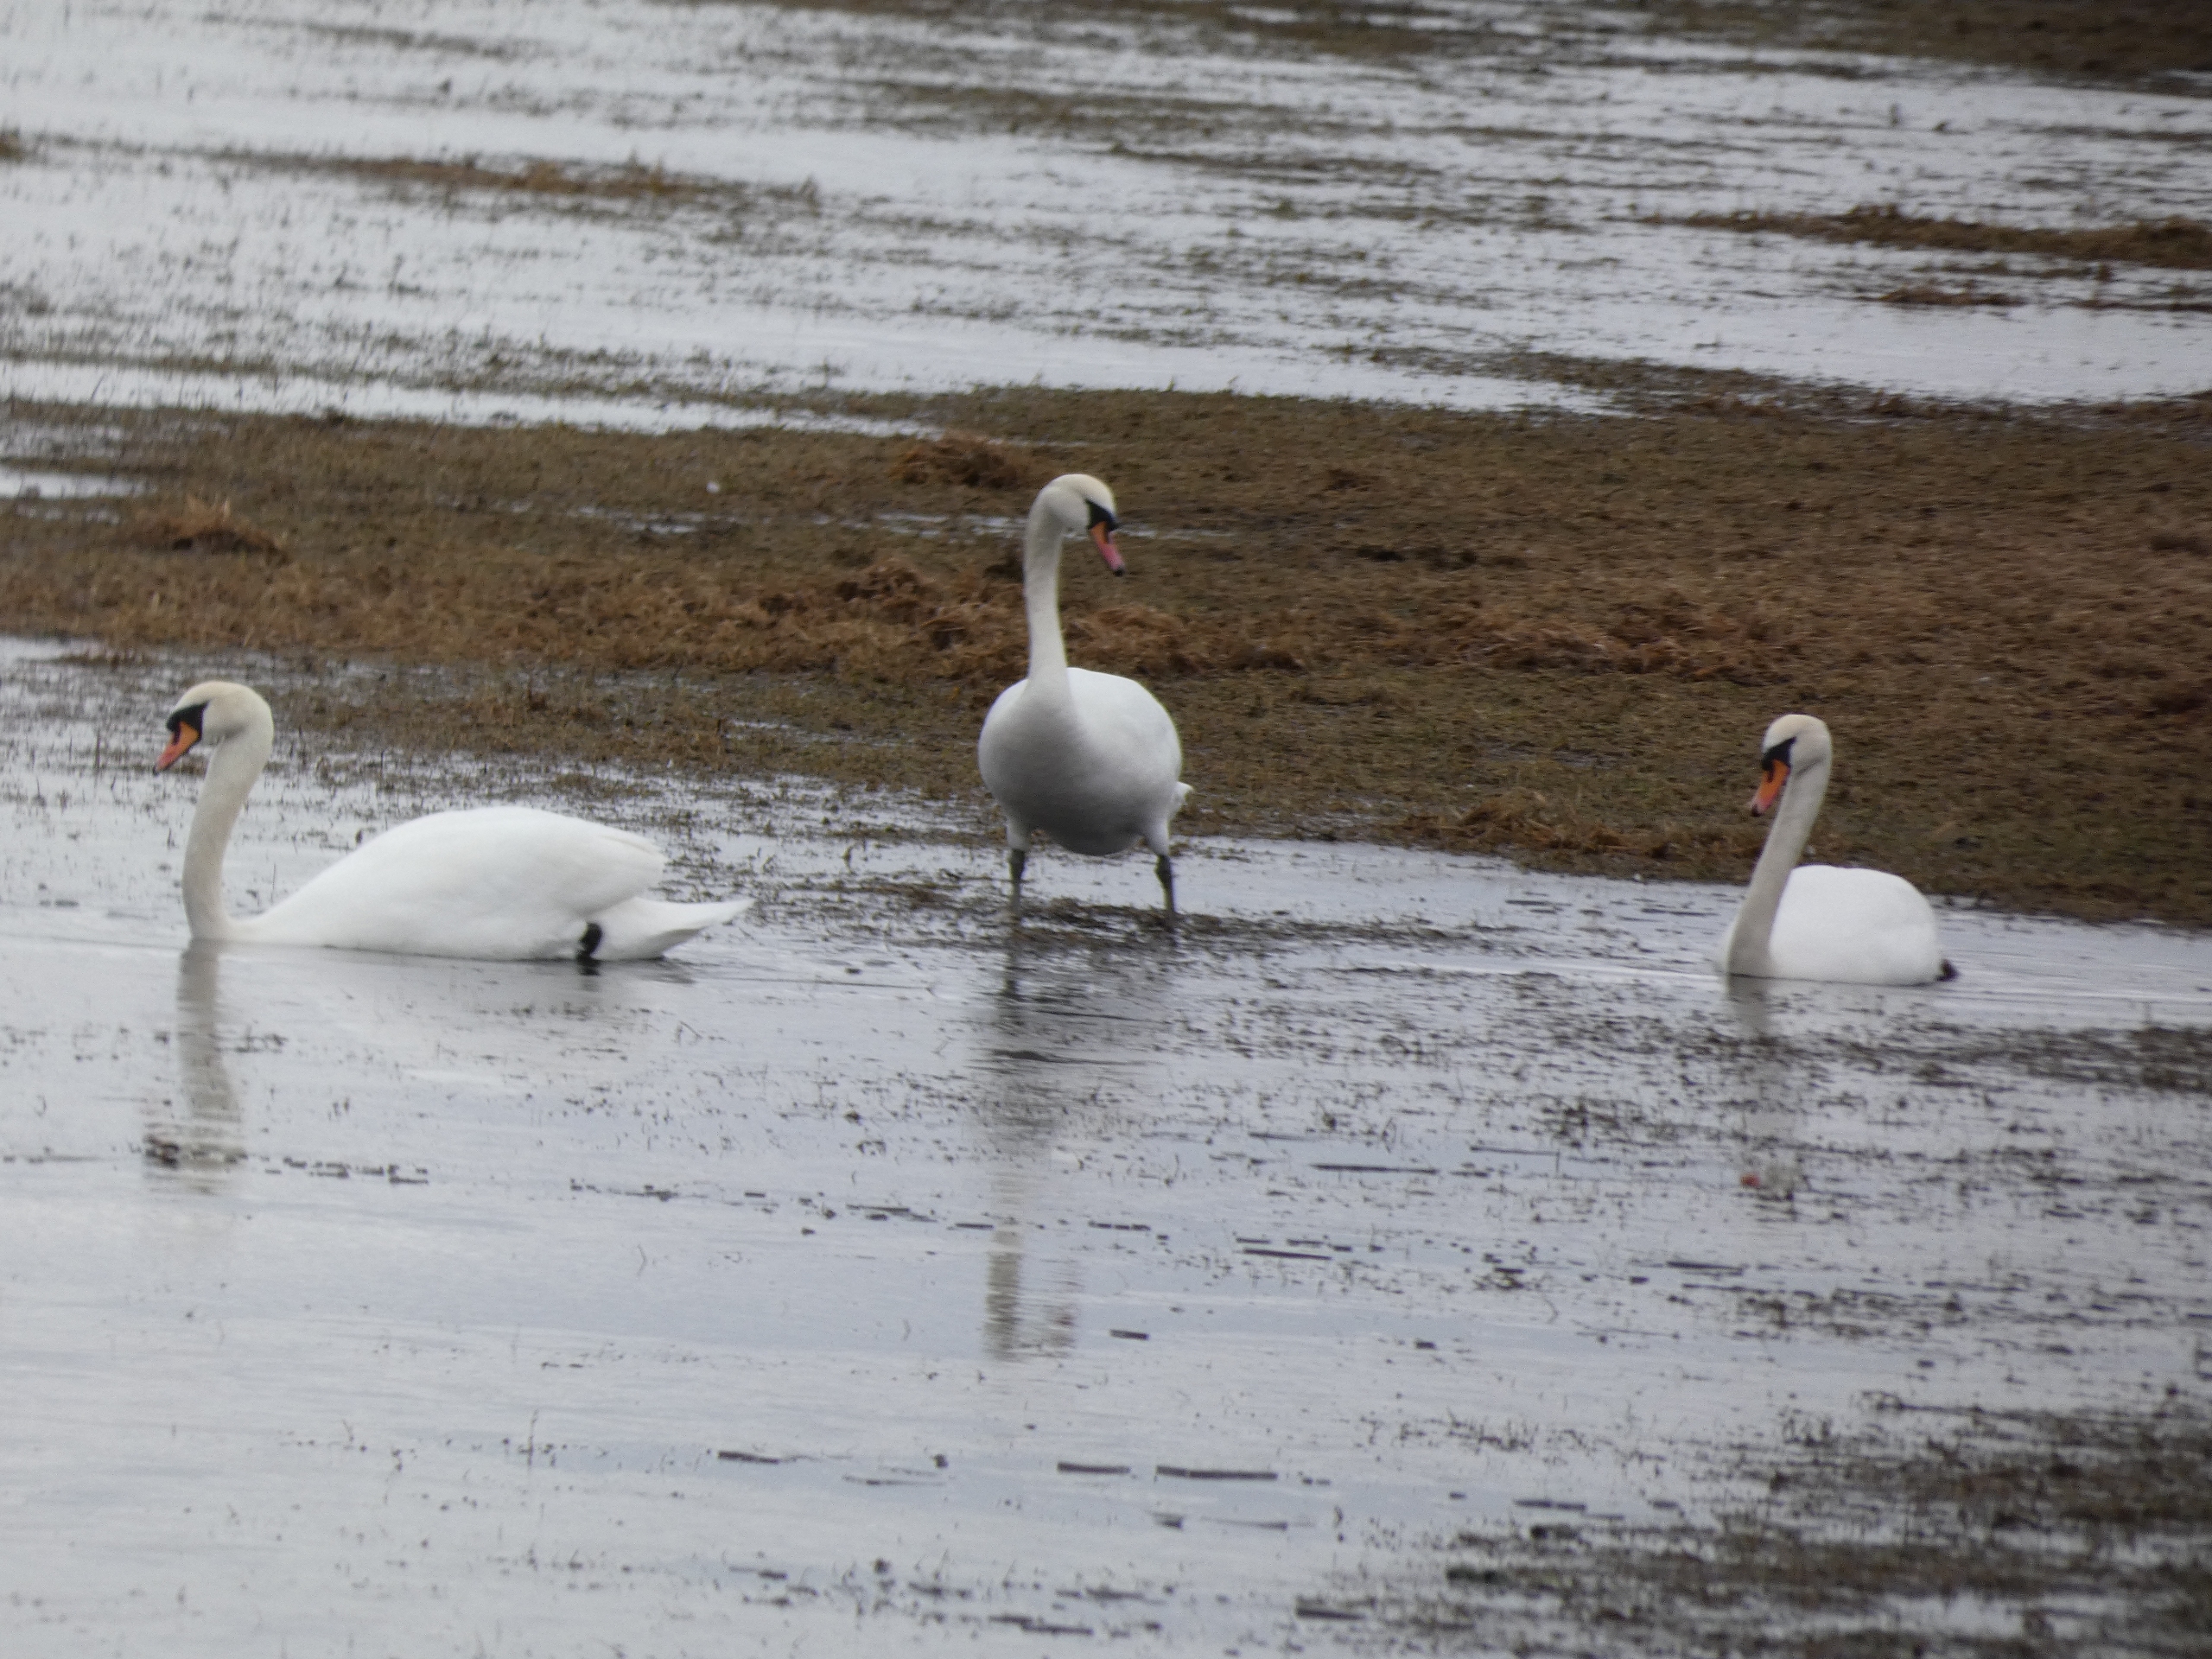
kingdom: Animalia
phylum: Chordata
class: Aves
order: Anseriformes
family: Anatidae
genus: Cygnus
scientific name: Cygnus olor
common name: Knopsvane
